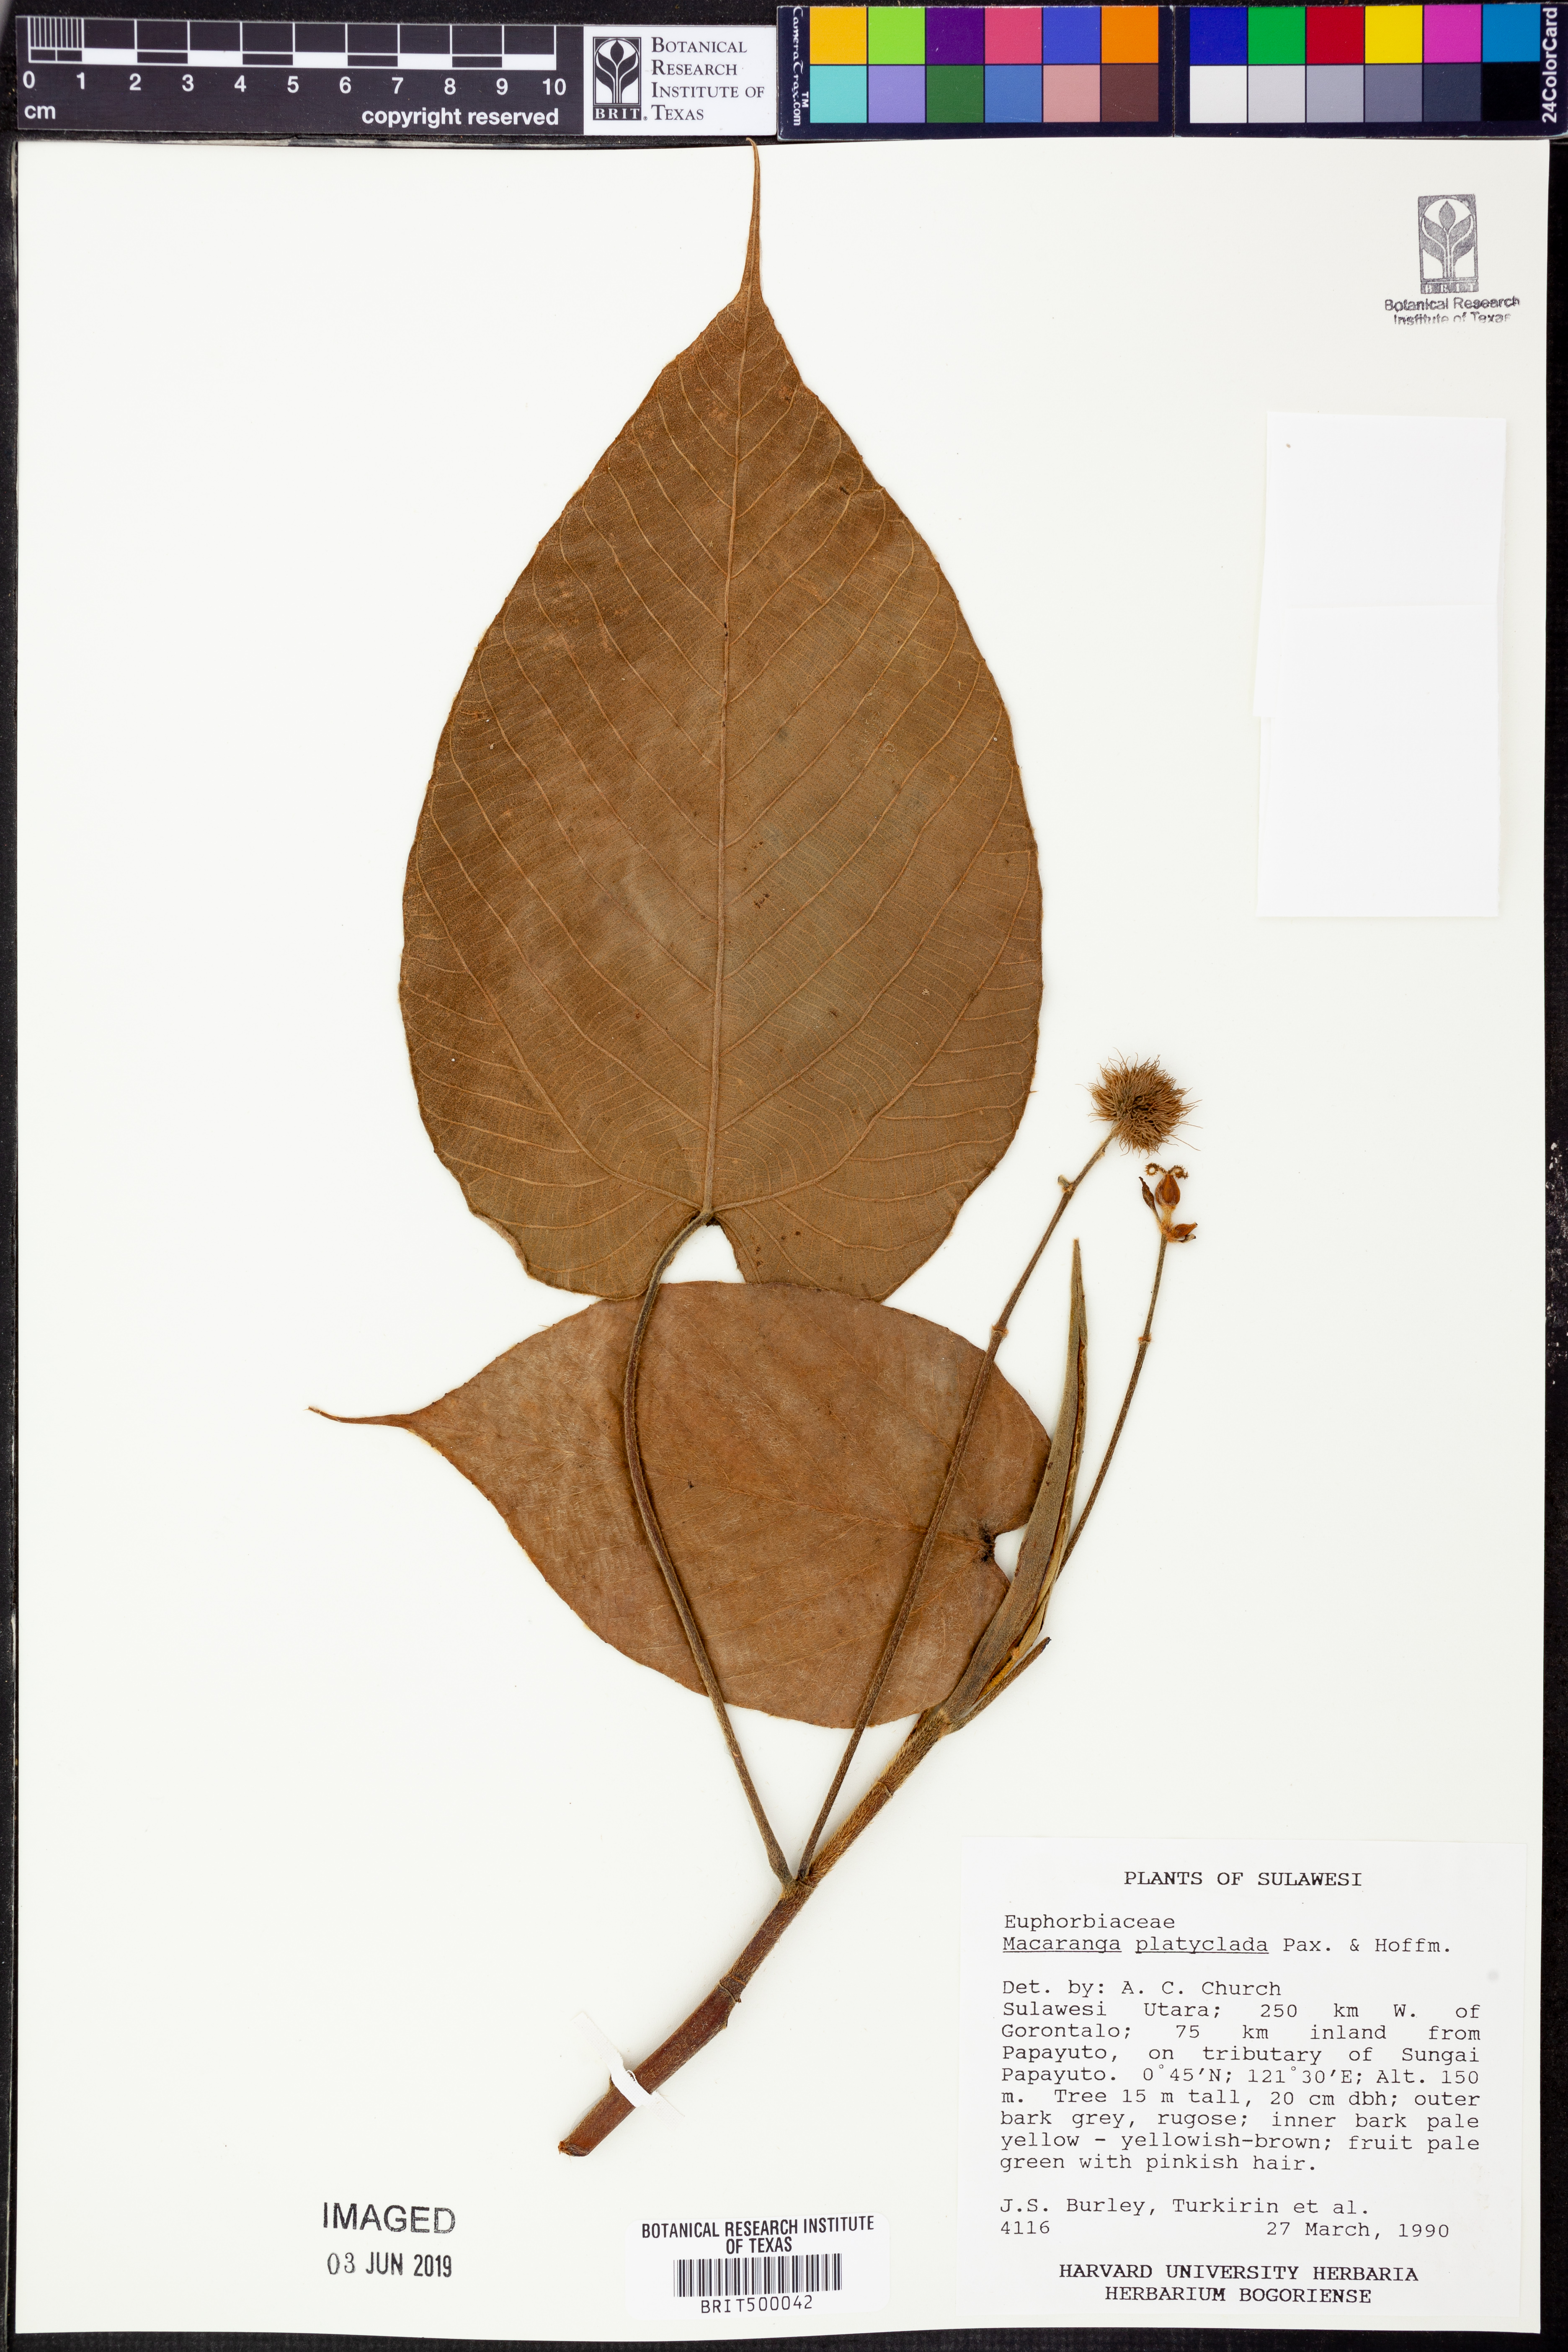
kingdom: Plantae
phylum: Tracheophyta
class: Magnoliopsida
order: Malpighiales
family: Euphorbiaceae
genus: Macaranga
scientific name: Macaranga platyclada
